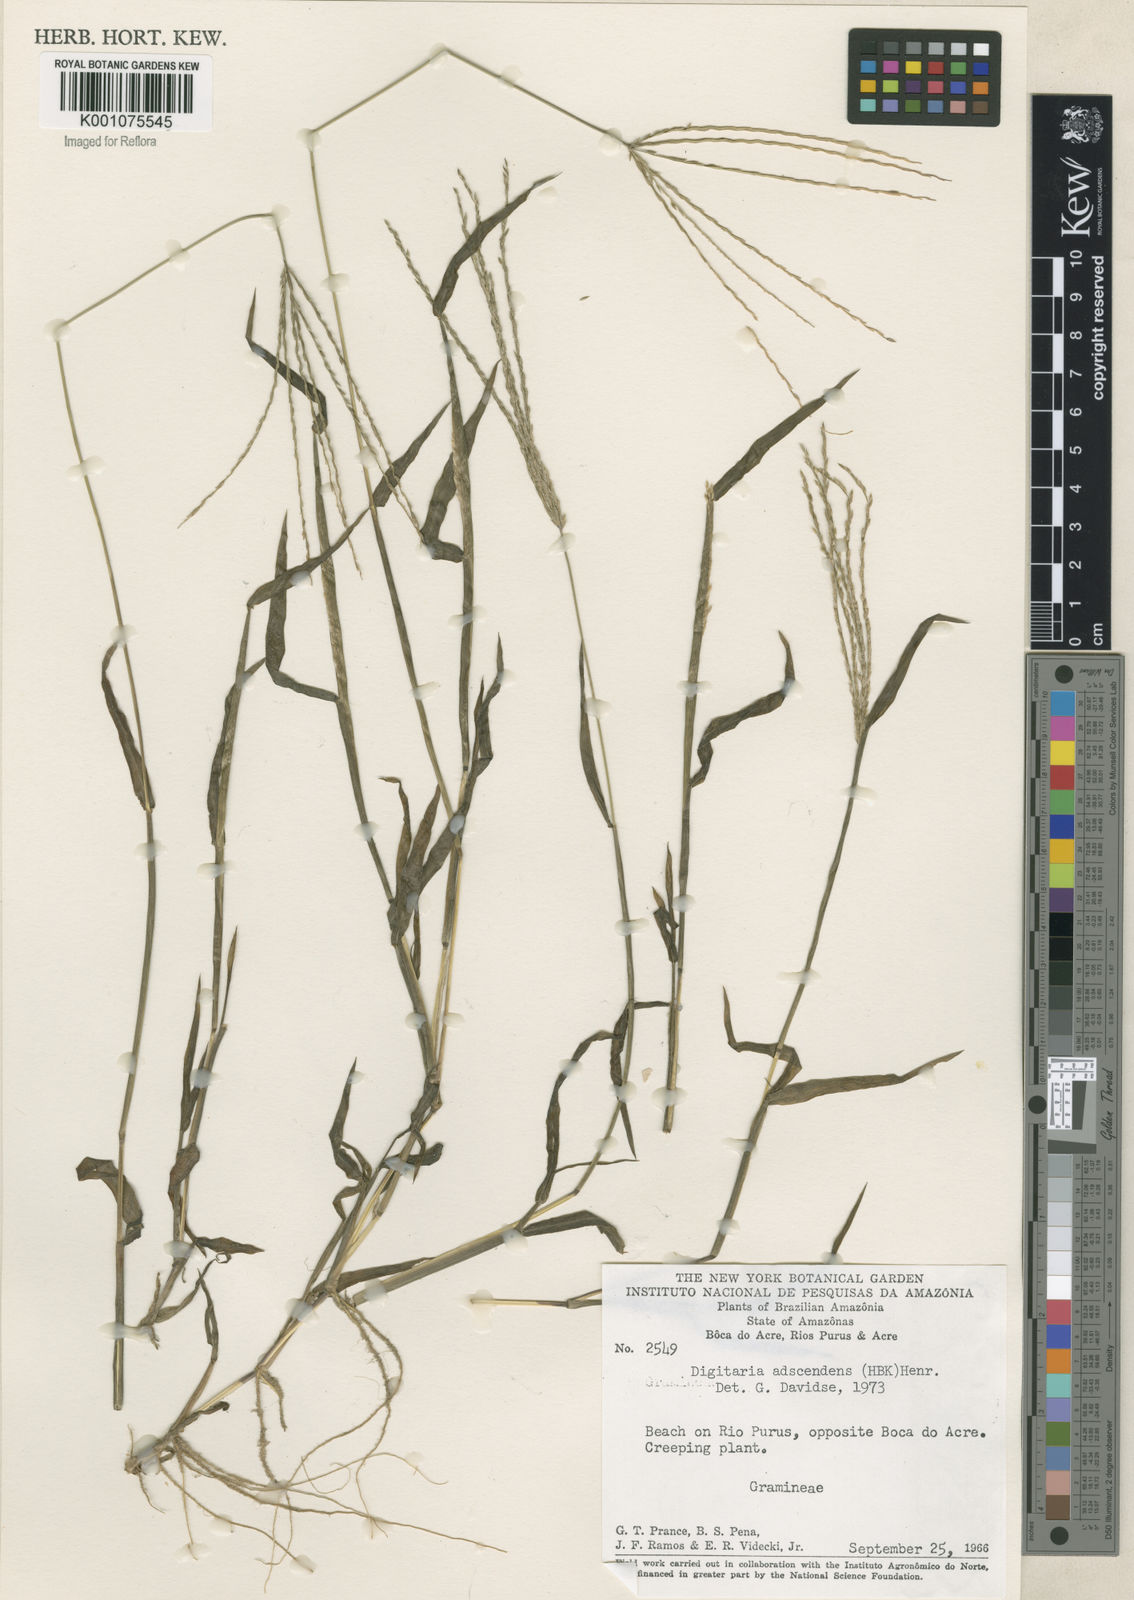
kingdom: Plantae
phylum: Tracheophyta
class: Liliopsida
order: Poales
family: Poaceae
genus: Digitaria
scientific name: Digitaria ciliaris
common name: Tropical finger-grass
